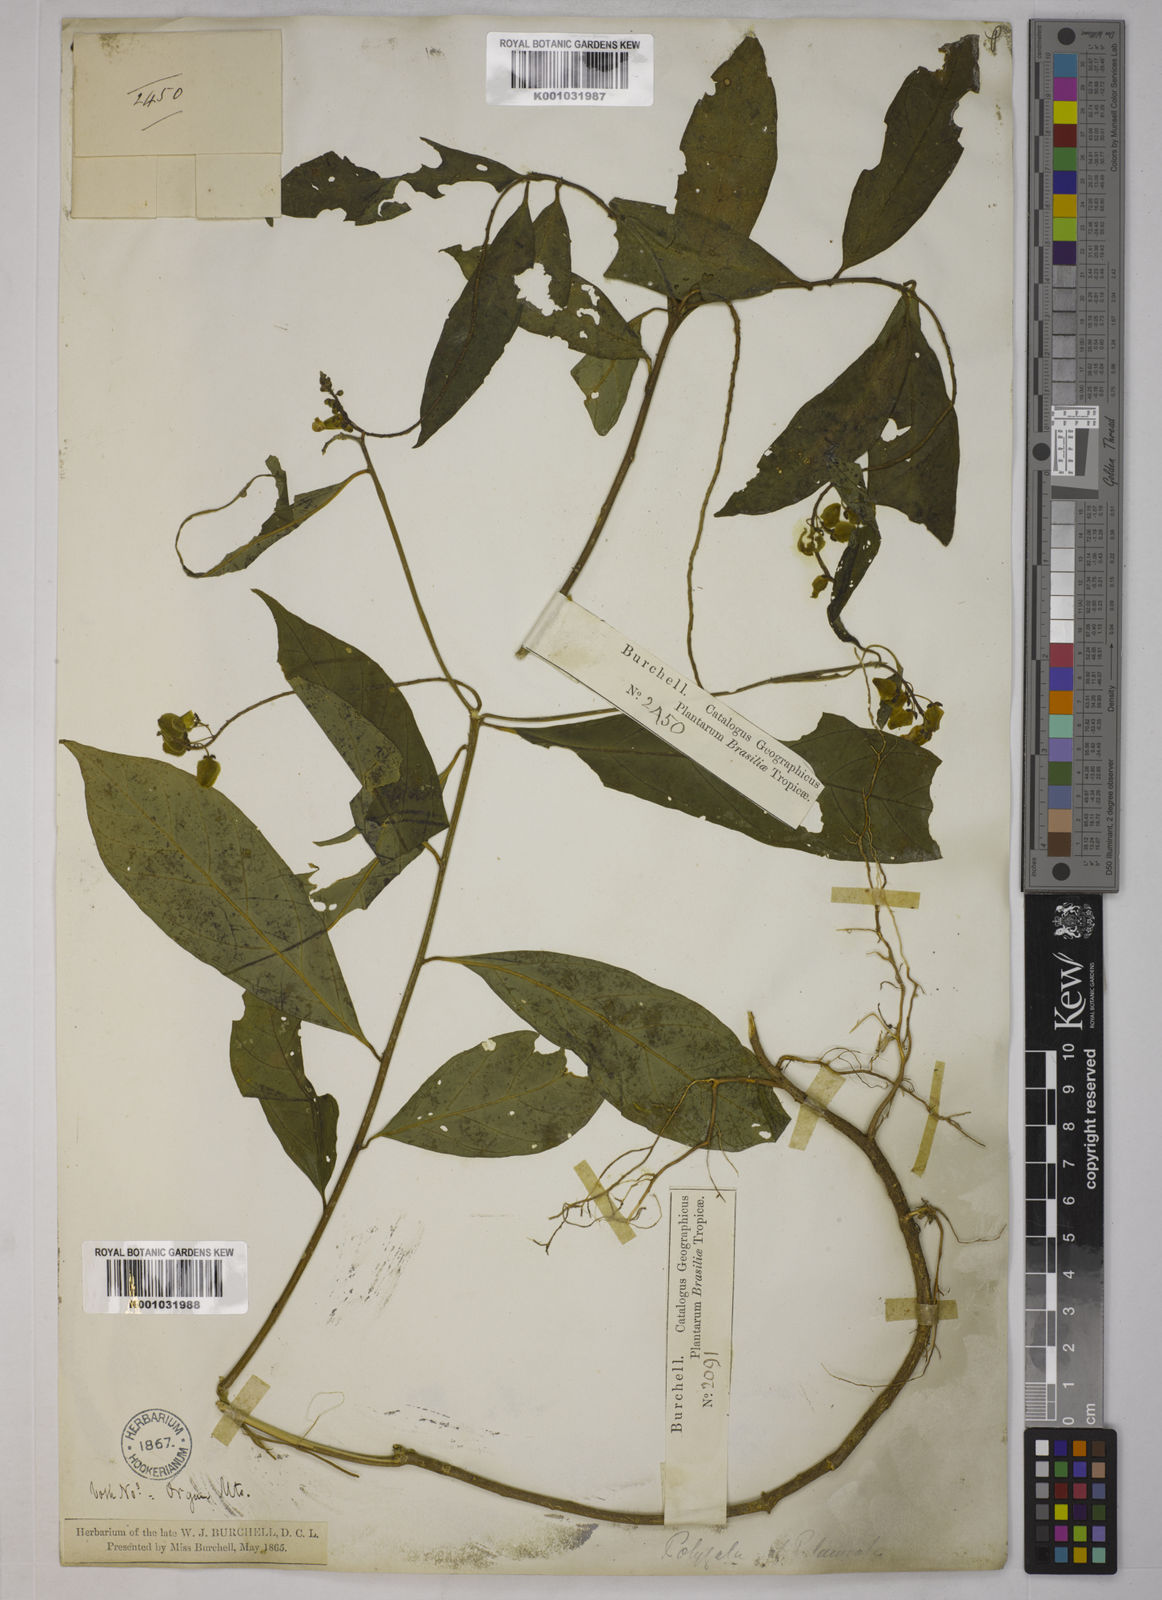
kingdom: Plantae
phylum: Tracheophyta
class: Magnoliopsida
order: Fabales
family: Polygalaceae
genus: Caamembeca
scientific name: Caamembeca salicifolia
